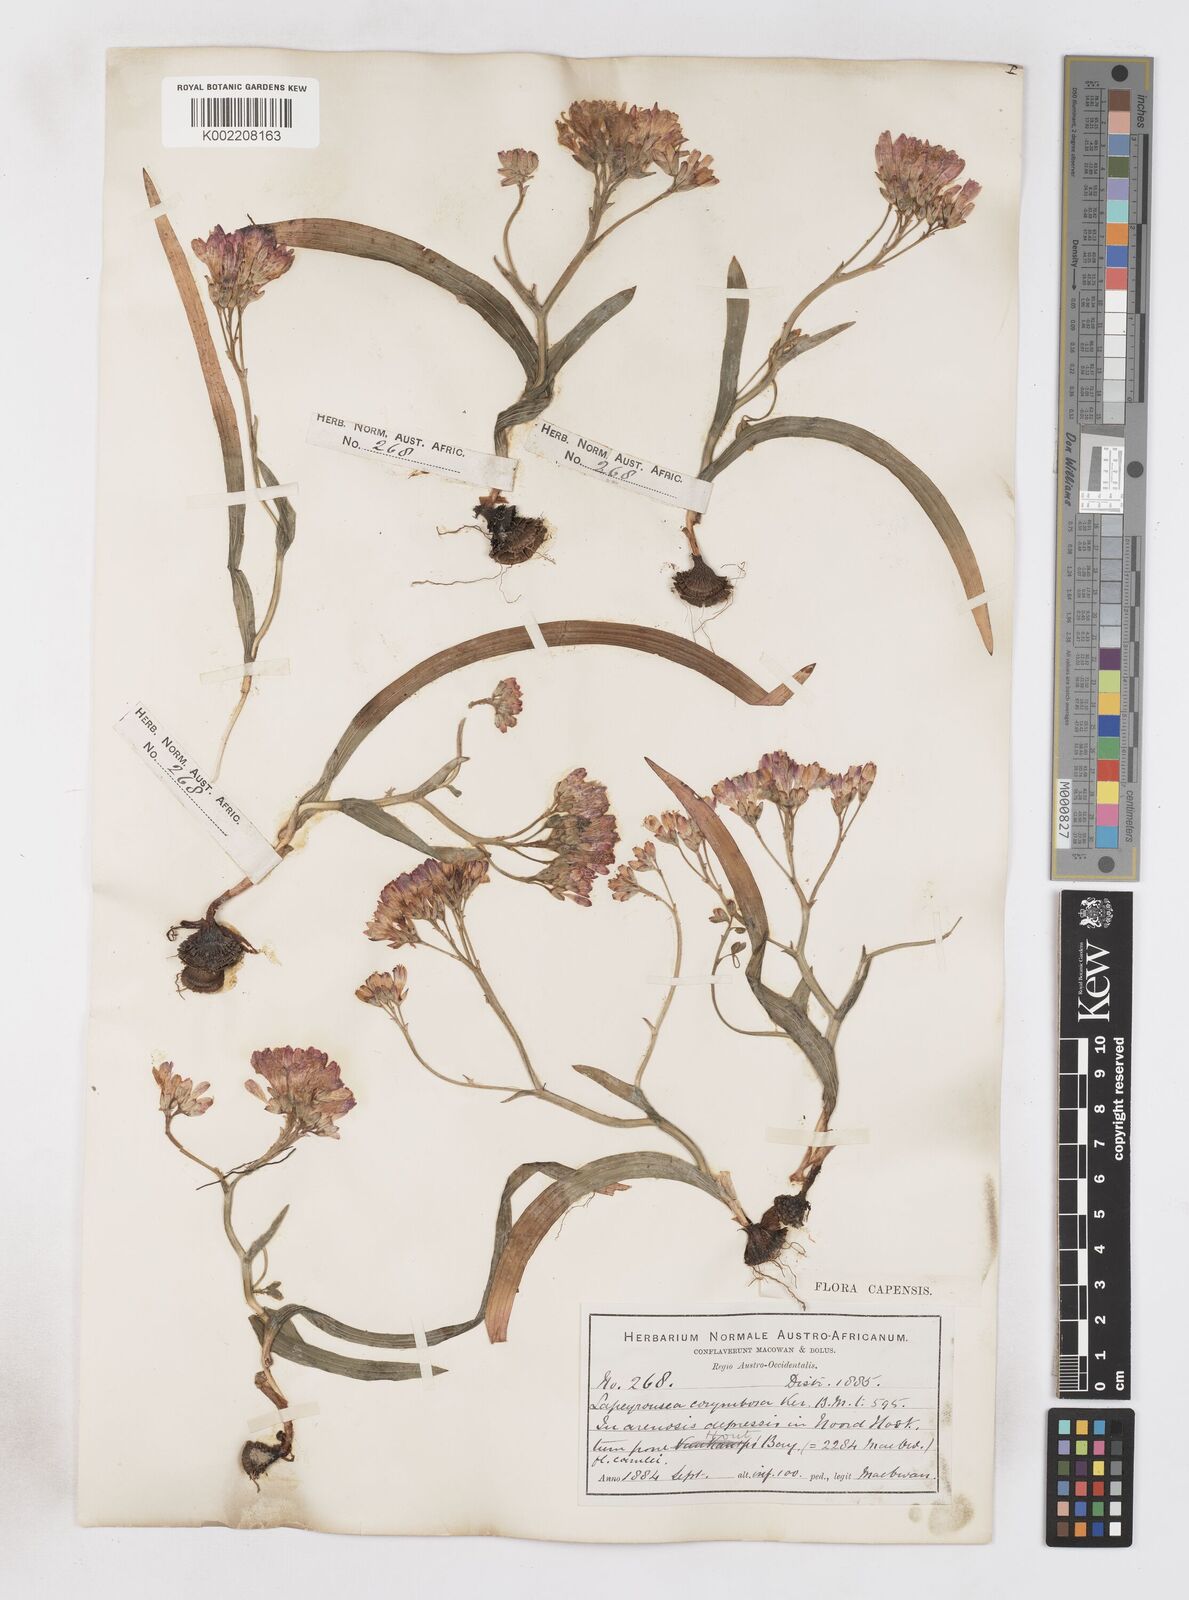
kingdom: Plantae
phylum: Tracheophyta
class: Liliopsida
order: Asparagales
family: Iridaceae
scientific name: Iridaceae
